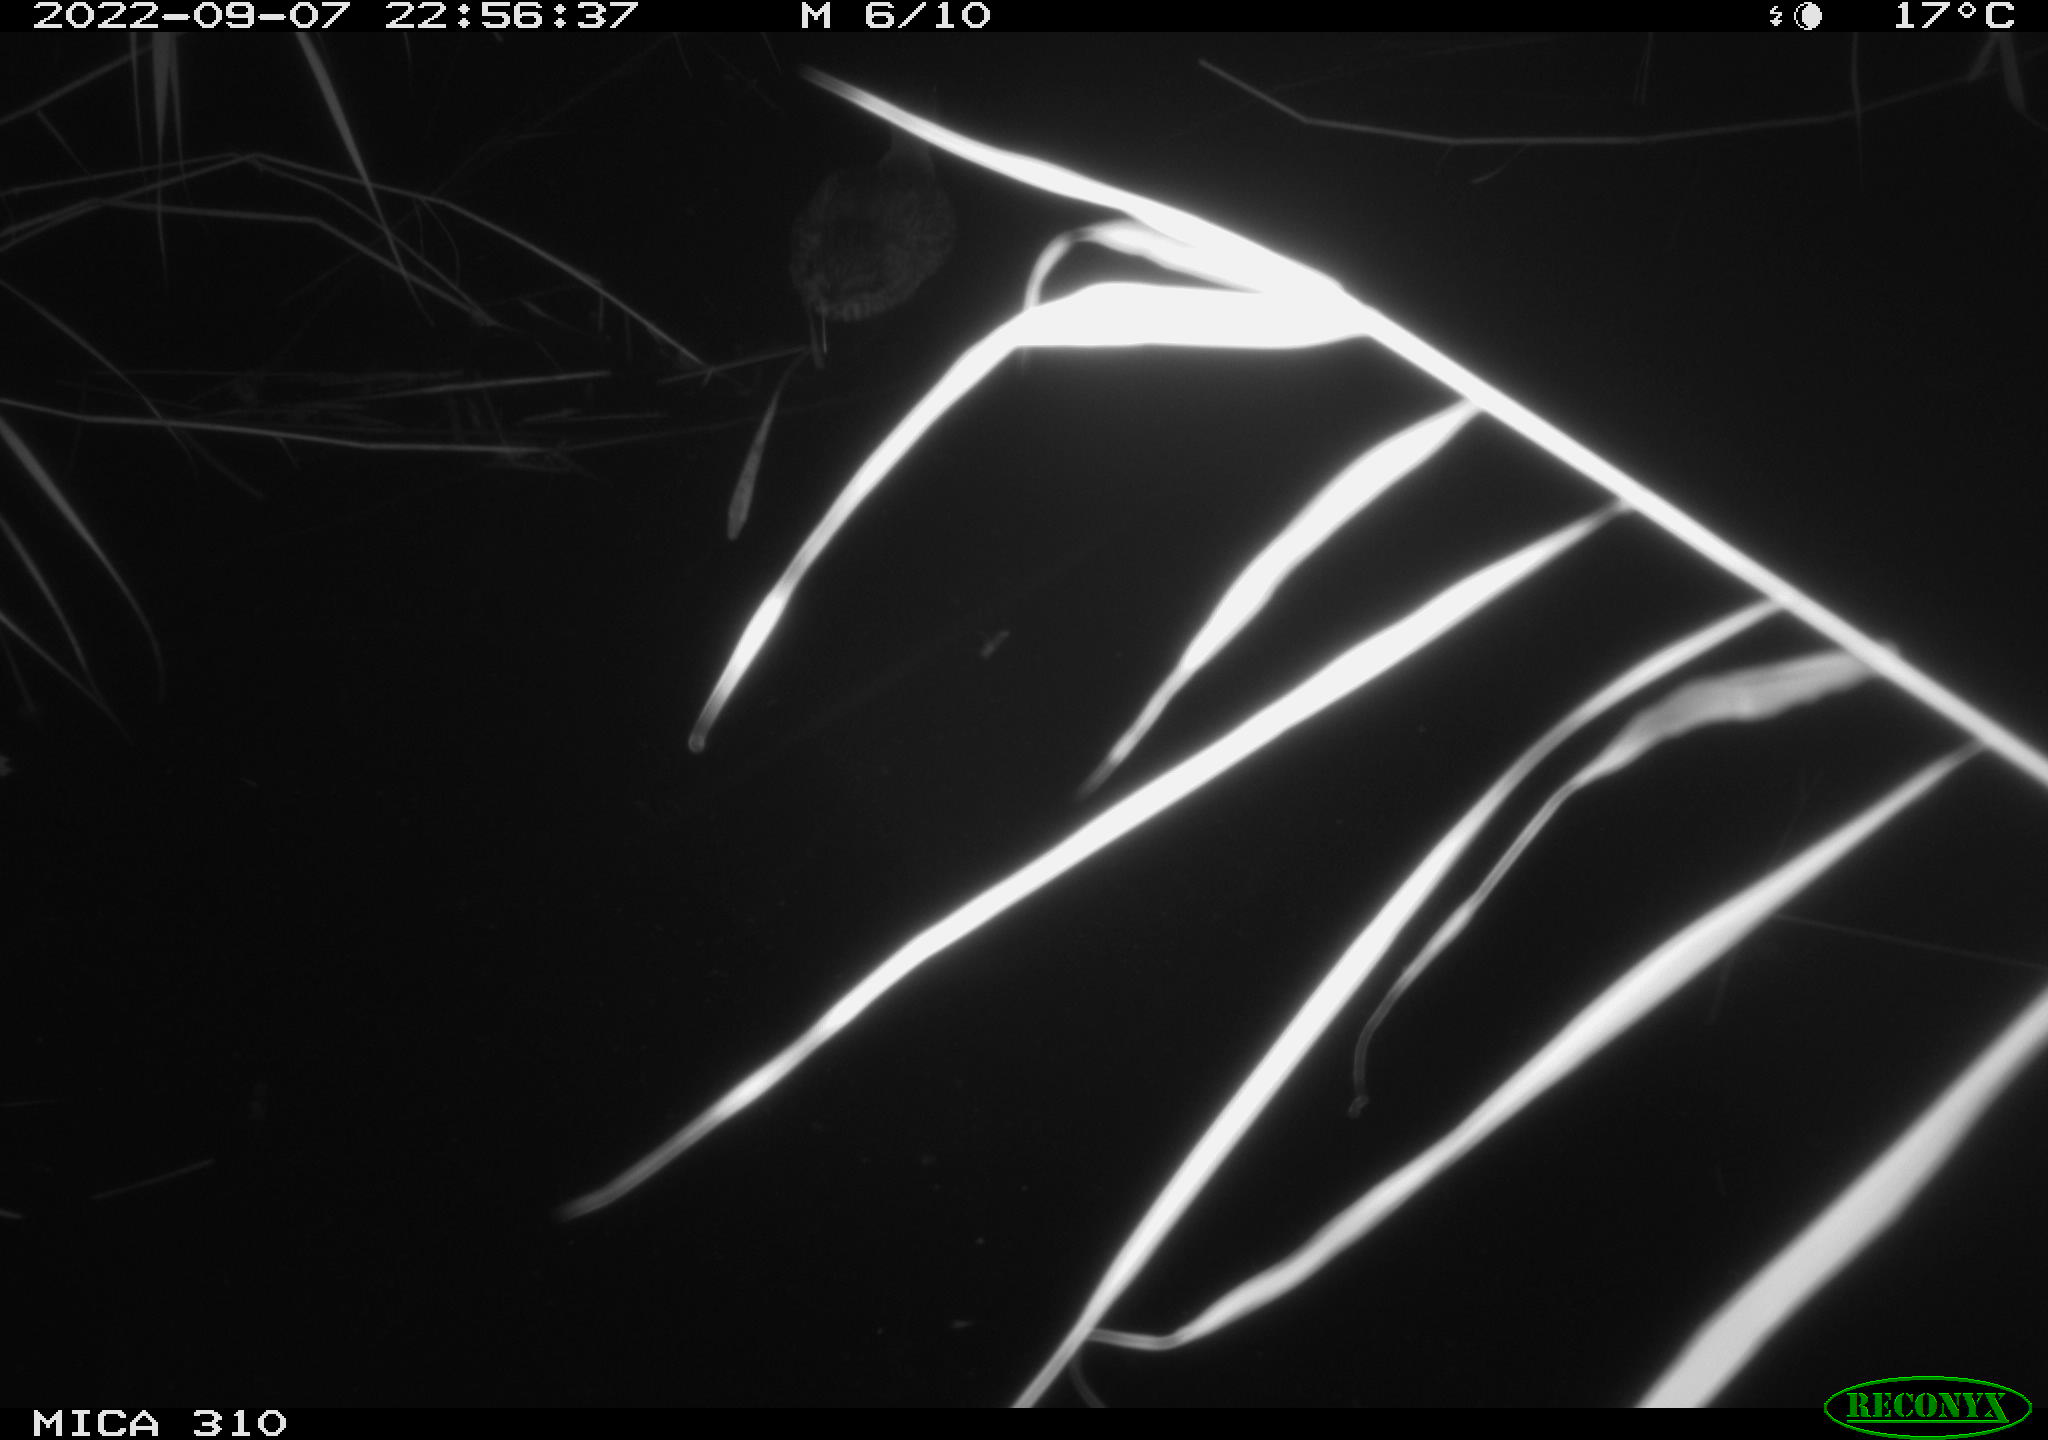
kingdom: Animalia
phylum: Chordata
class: Aves
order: Anseriformes
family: Anatidae
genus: Anas
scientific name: Anas
